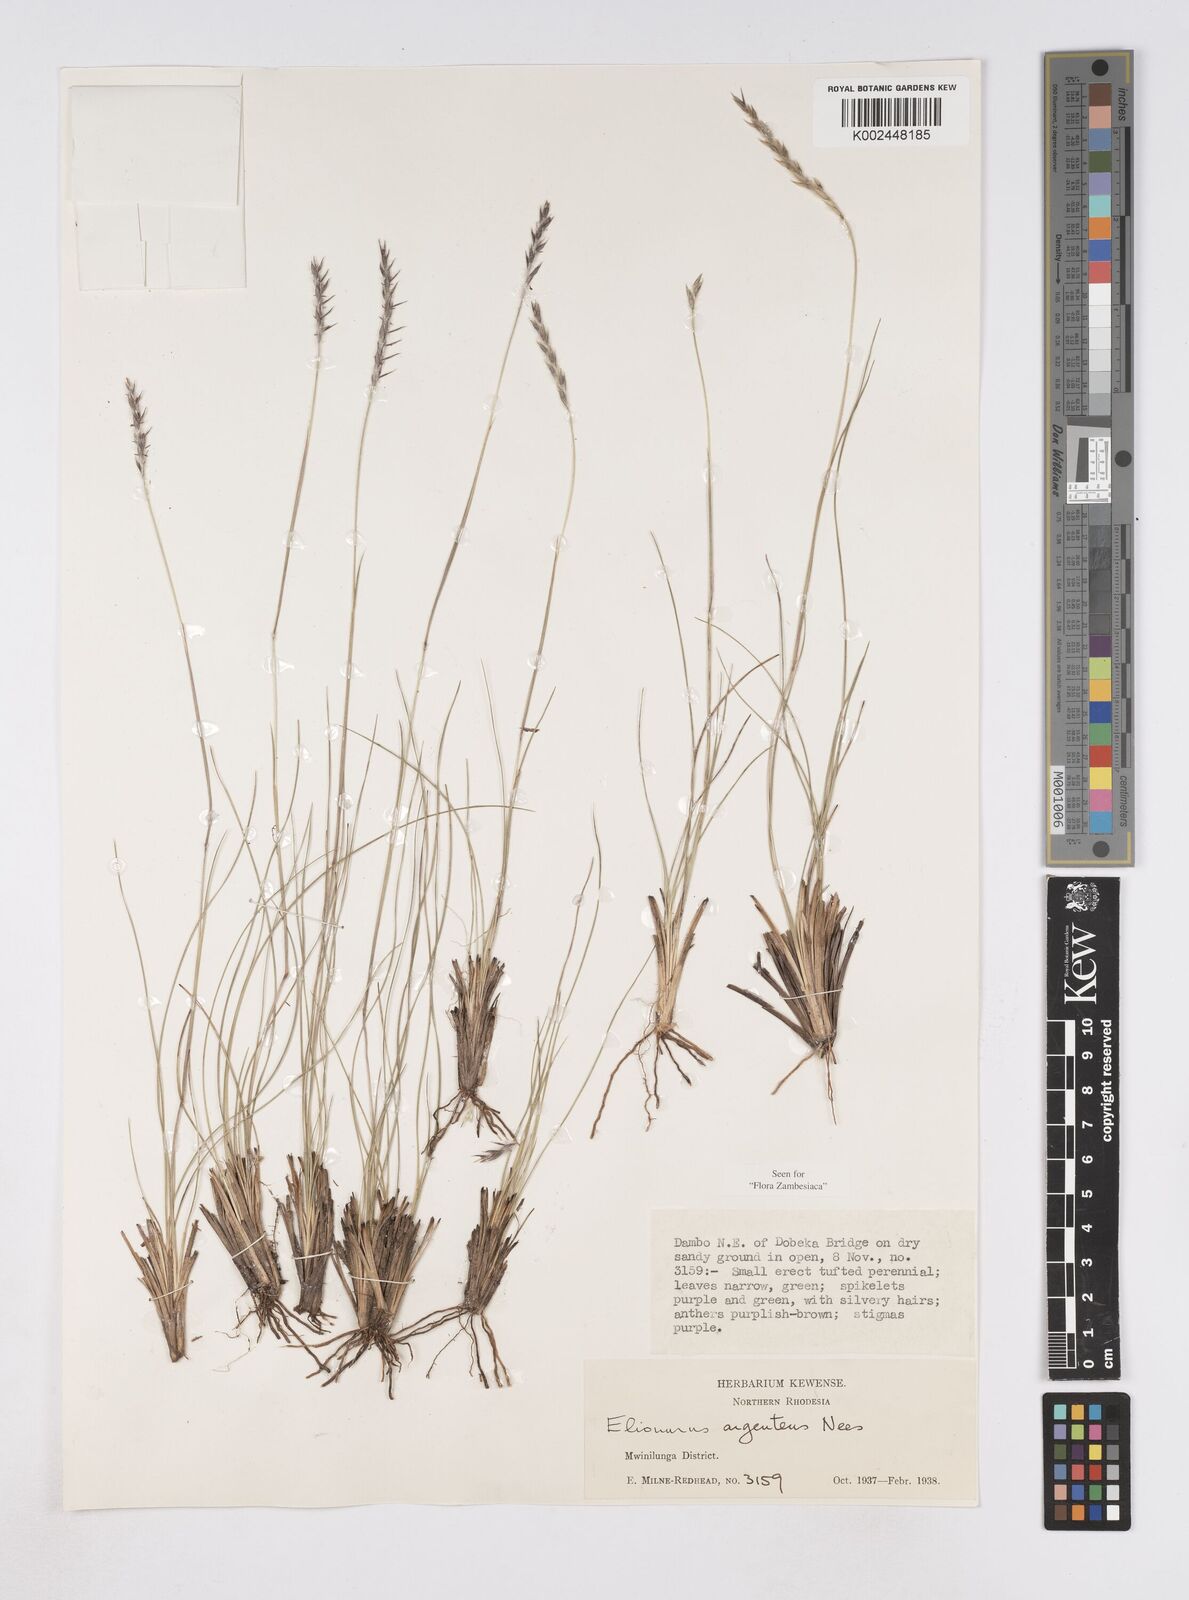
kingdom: Plantae
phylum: Tracheophyta
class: Liliopsida
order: Poales
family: Poaceae
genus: Elionurus
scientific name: Elionurus muticus
